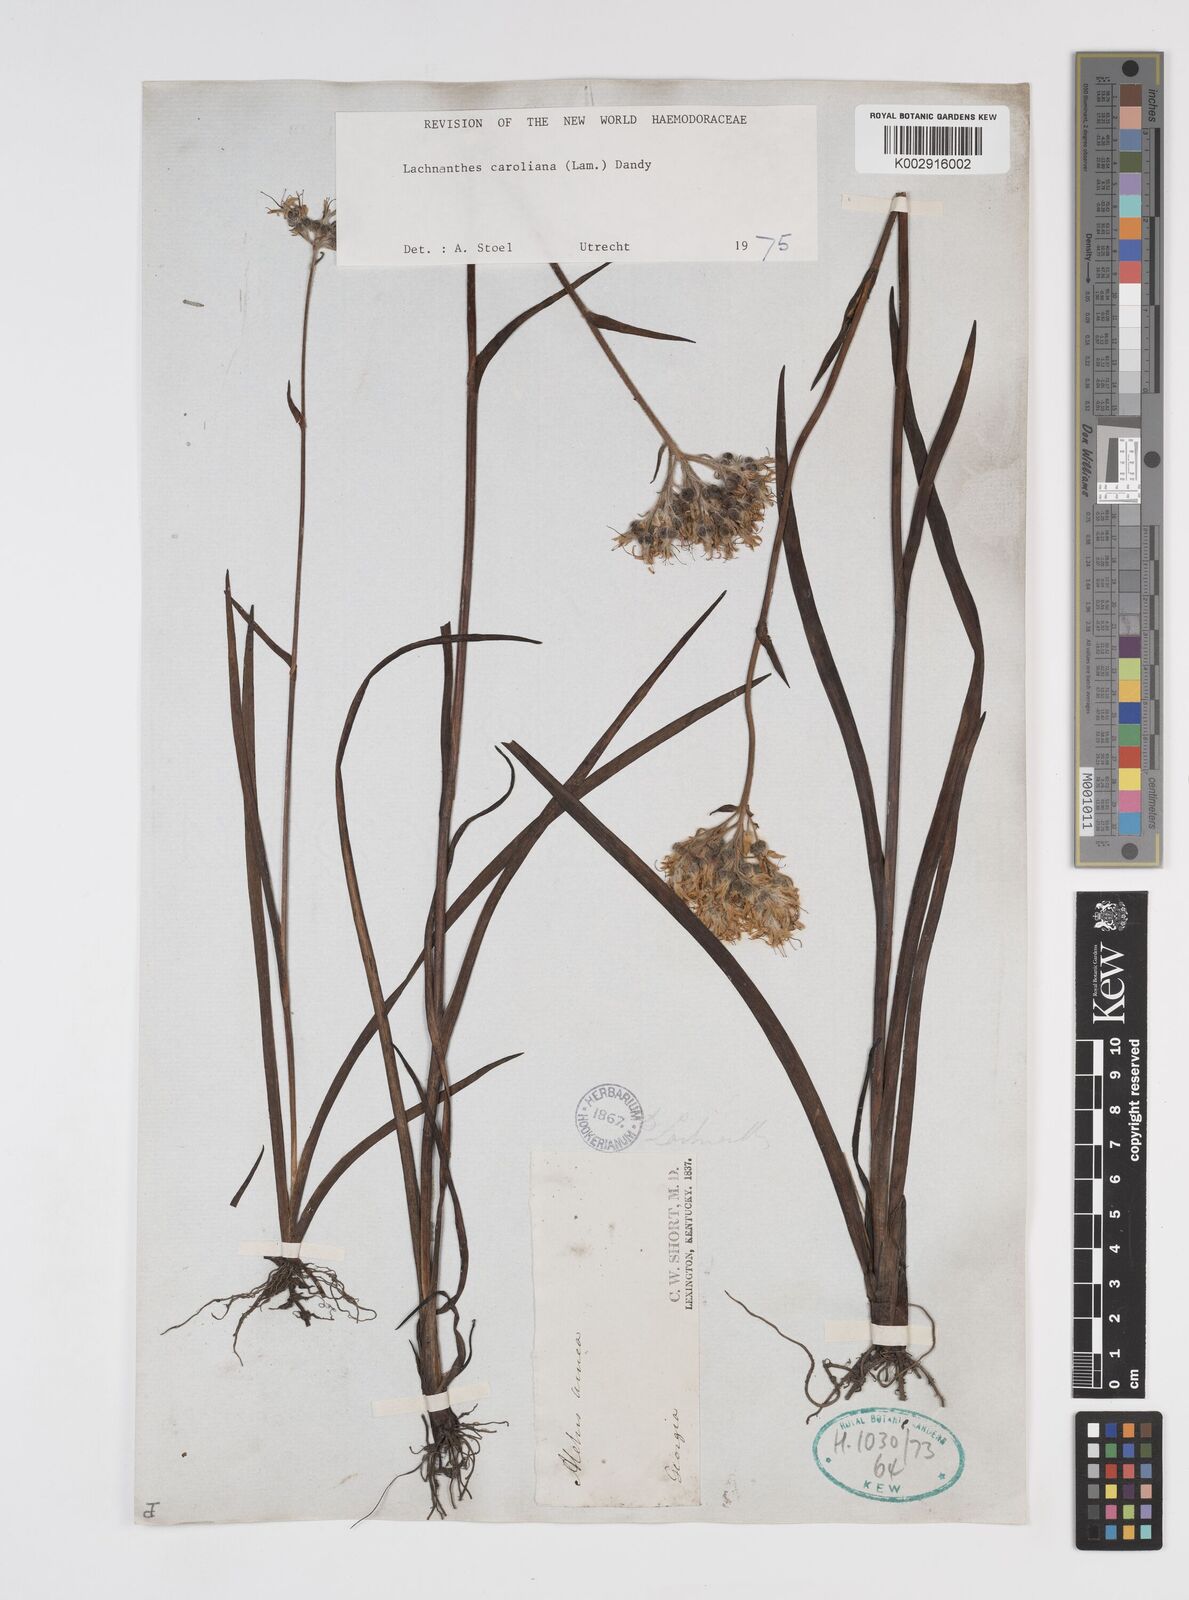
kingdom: Plantae
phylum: Tracheophyta
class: Liliopsida
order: Commelinales
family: Haemodoraceae
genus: Lachnanthes
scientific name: Lachnanthes caroliniana
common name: Carolina redroot
